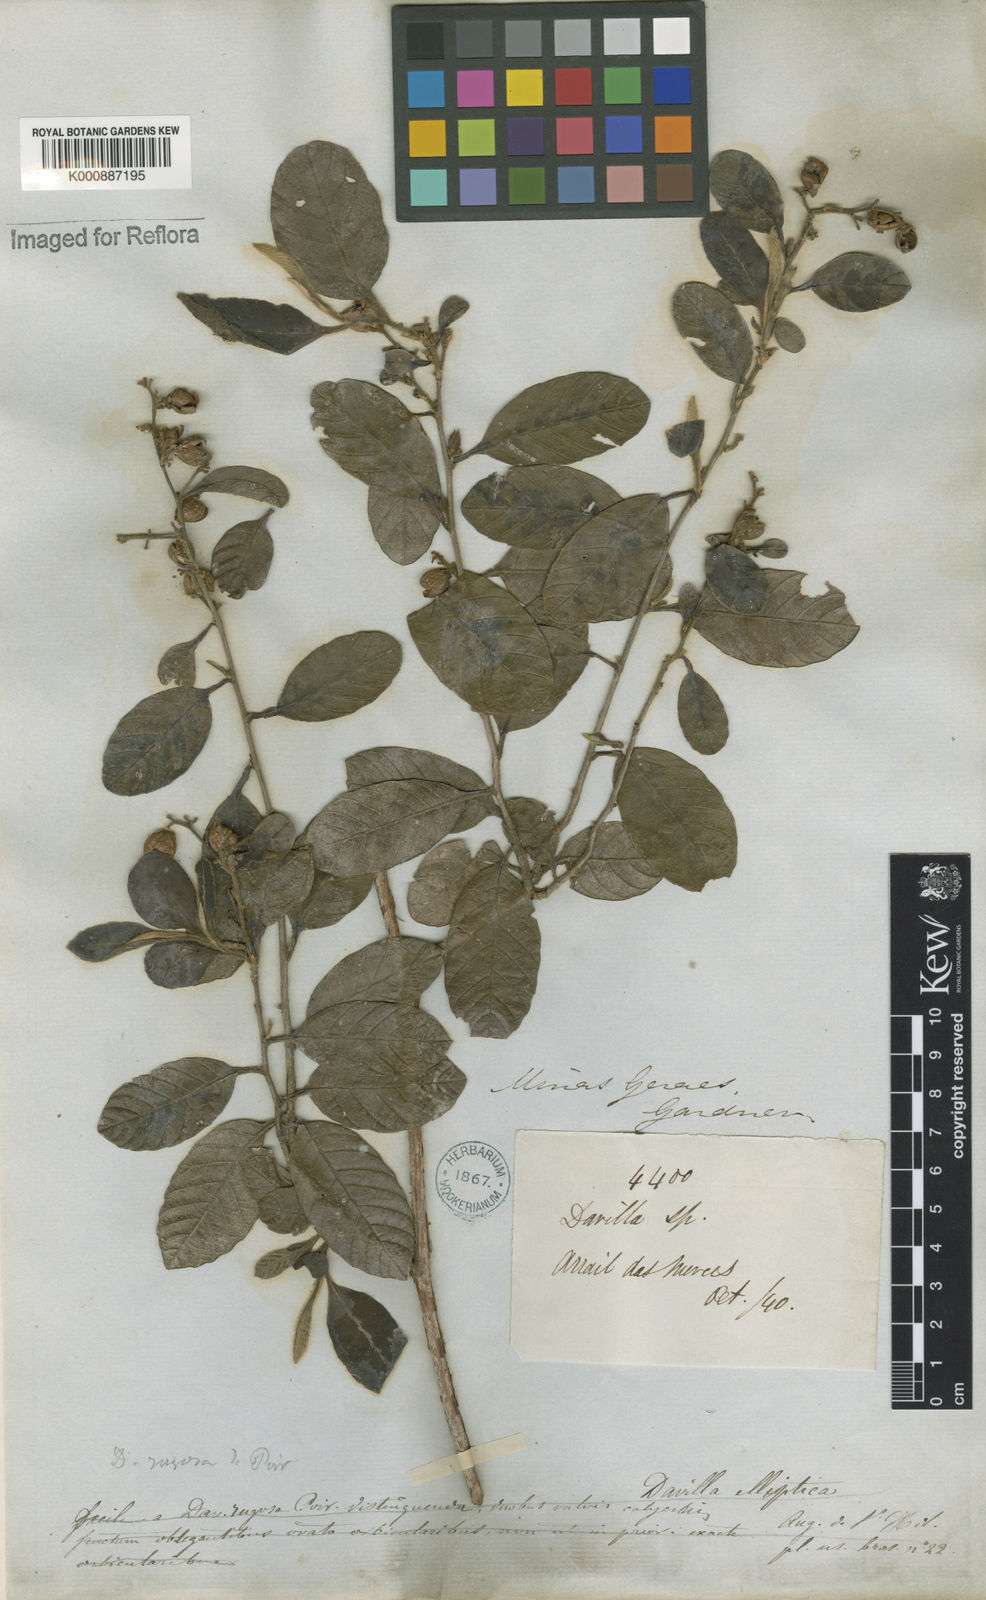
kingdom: Plantae
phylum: Tracheophyta
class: Magnoliopsida
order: Dilleniales
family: Dilleniaceae
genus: Davilla
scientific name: Davilla rugosa
